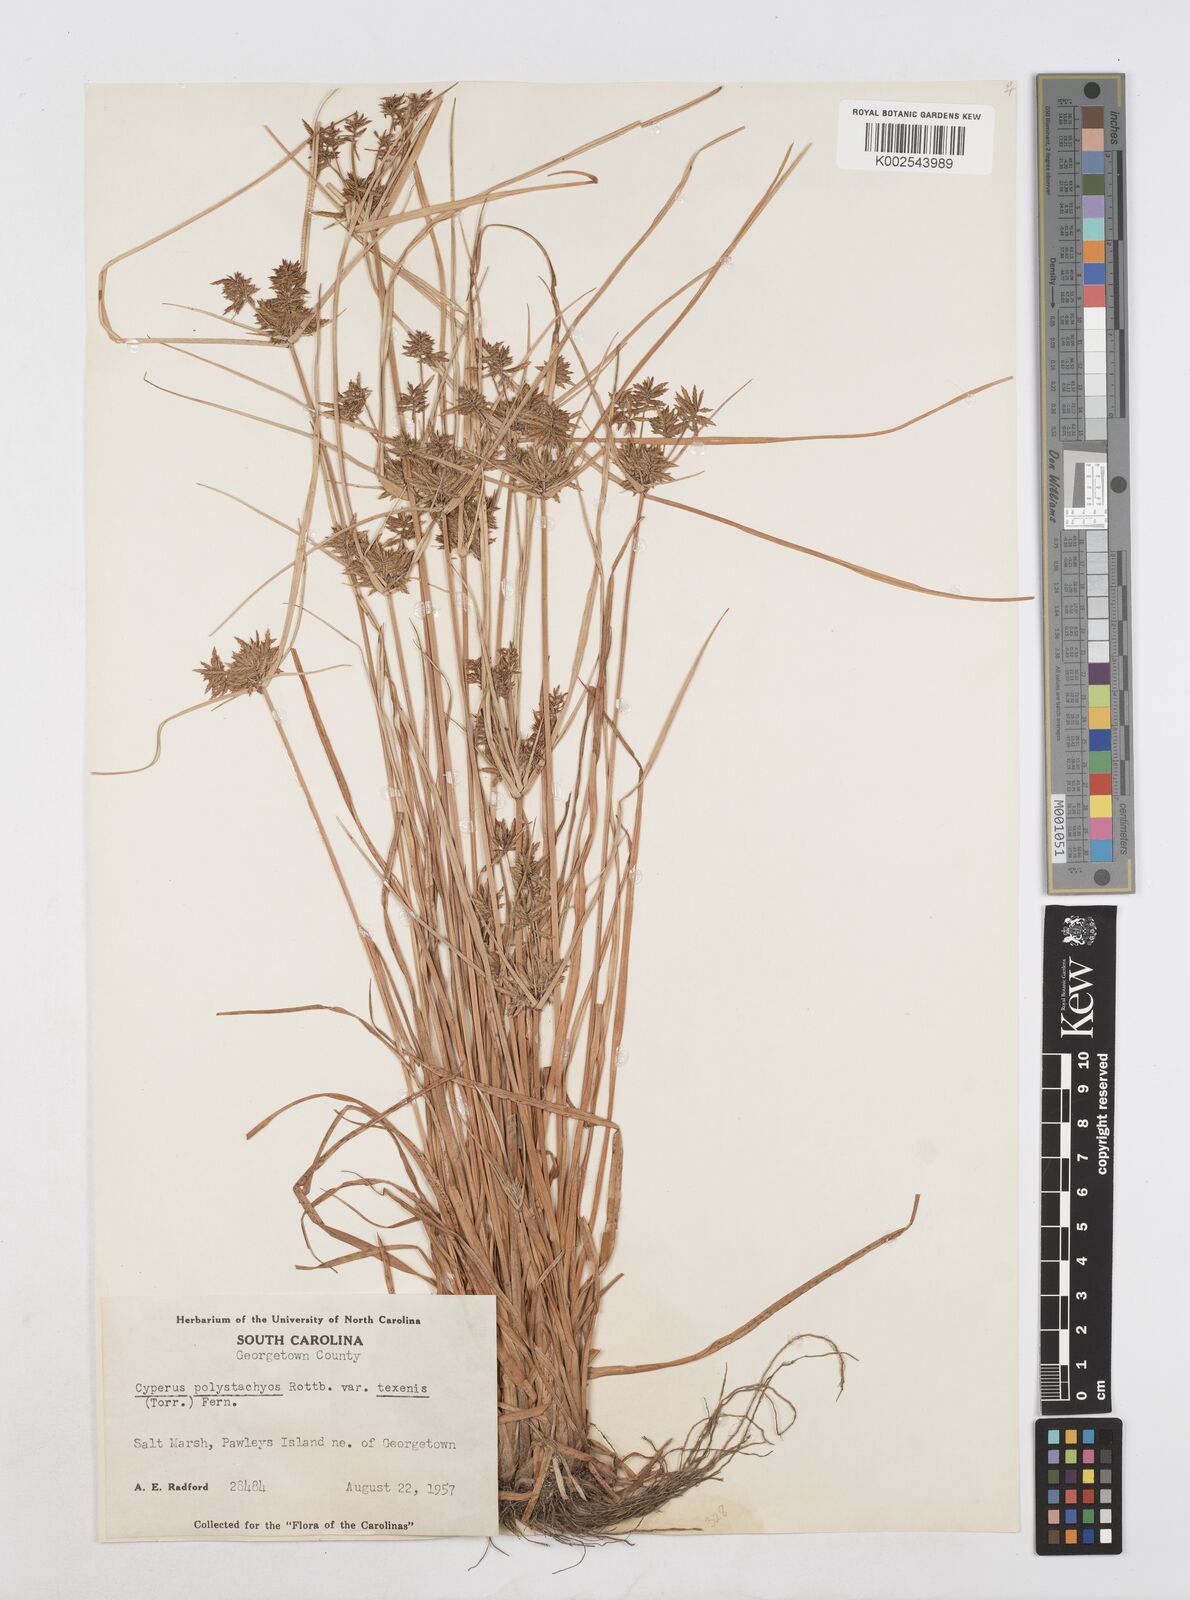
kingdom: Plantae
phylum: Tracheophyta
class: Liliopsida
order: Poales
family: Cyperaceae
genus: Cyperus
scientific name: Cyperus polystachyos
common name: Bunchy flat sedge
